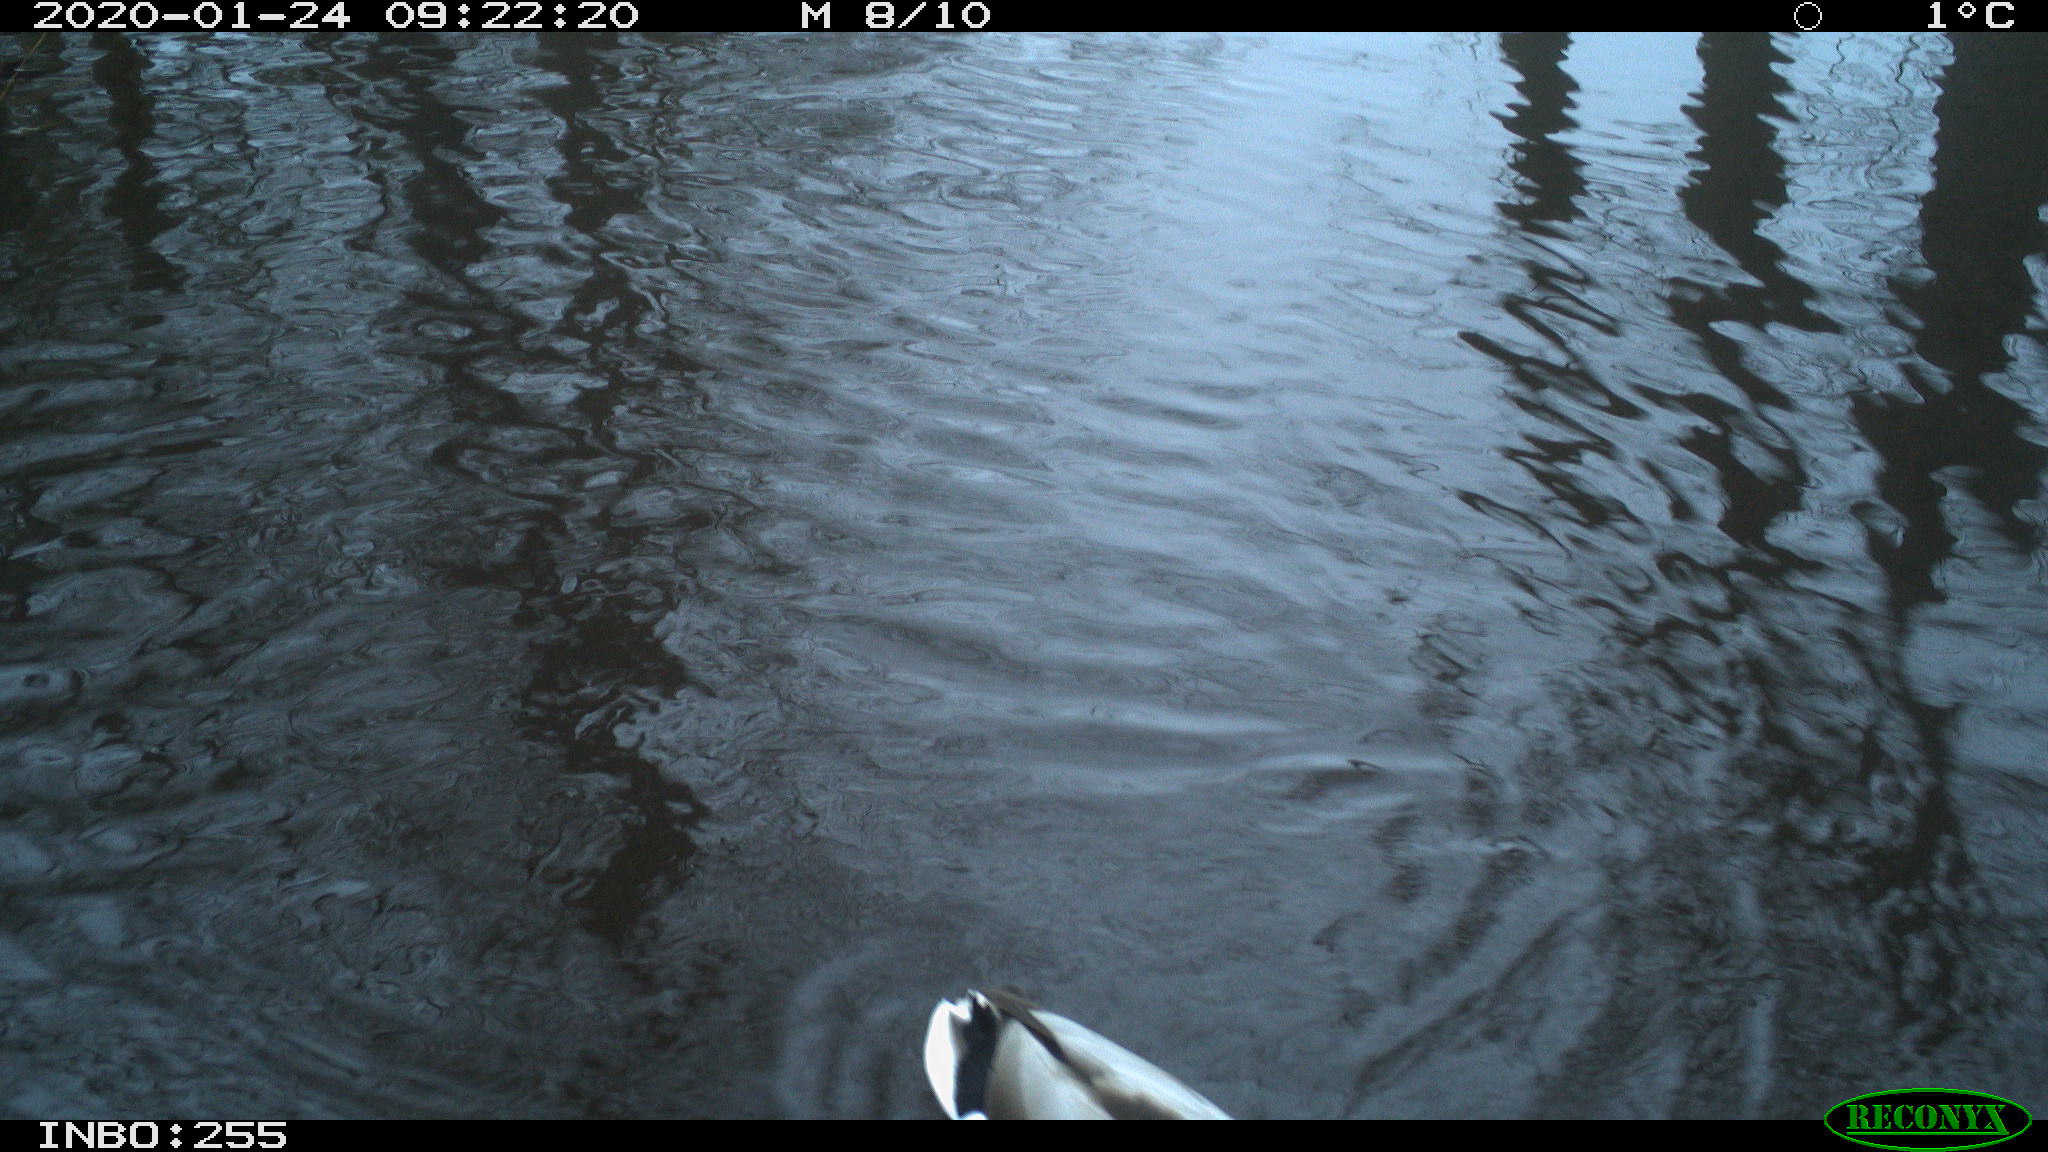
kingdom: Animalia
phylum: Chordata
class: Aves
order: Anseriformes
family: Anatidae
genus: Anas
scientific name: Anas platyrhynchos
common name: Mallard
